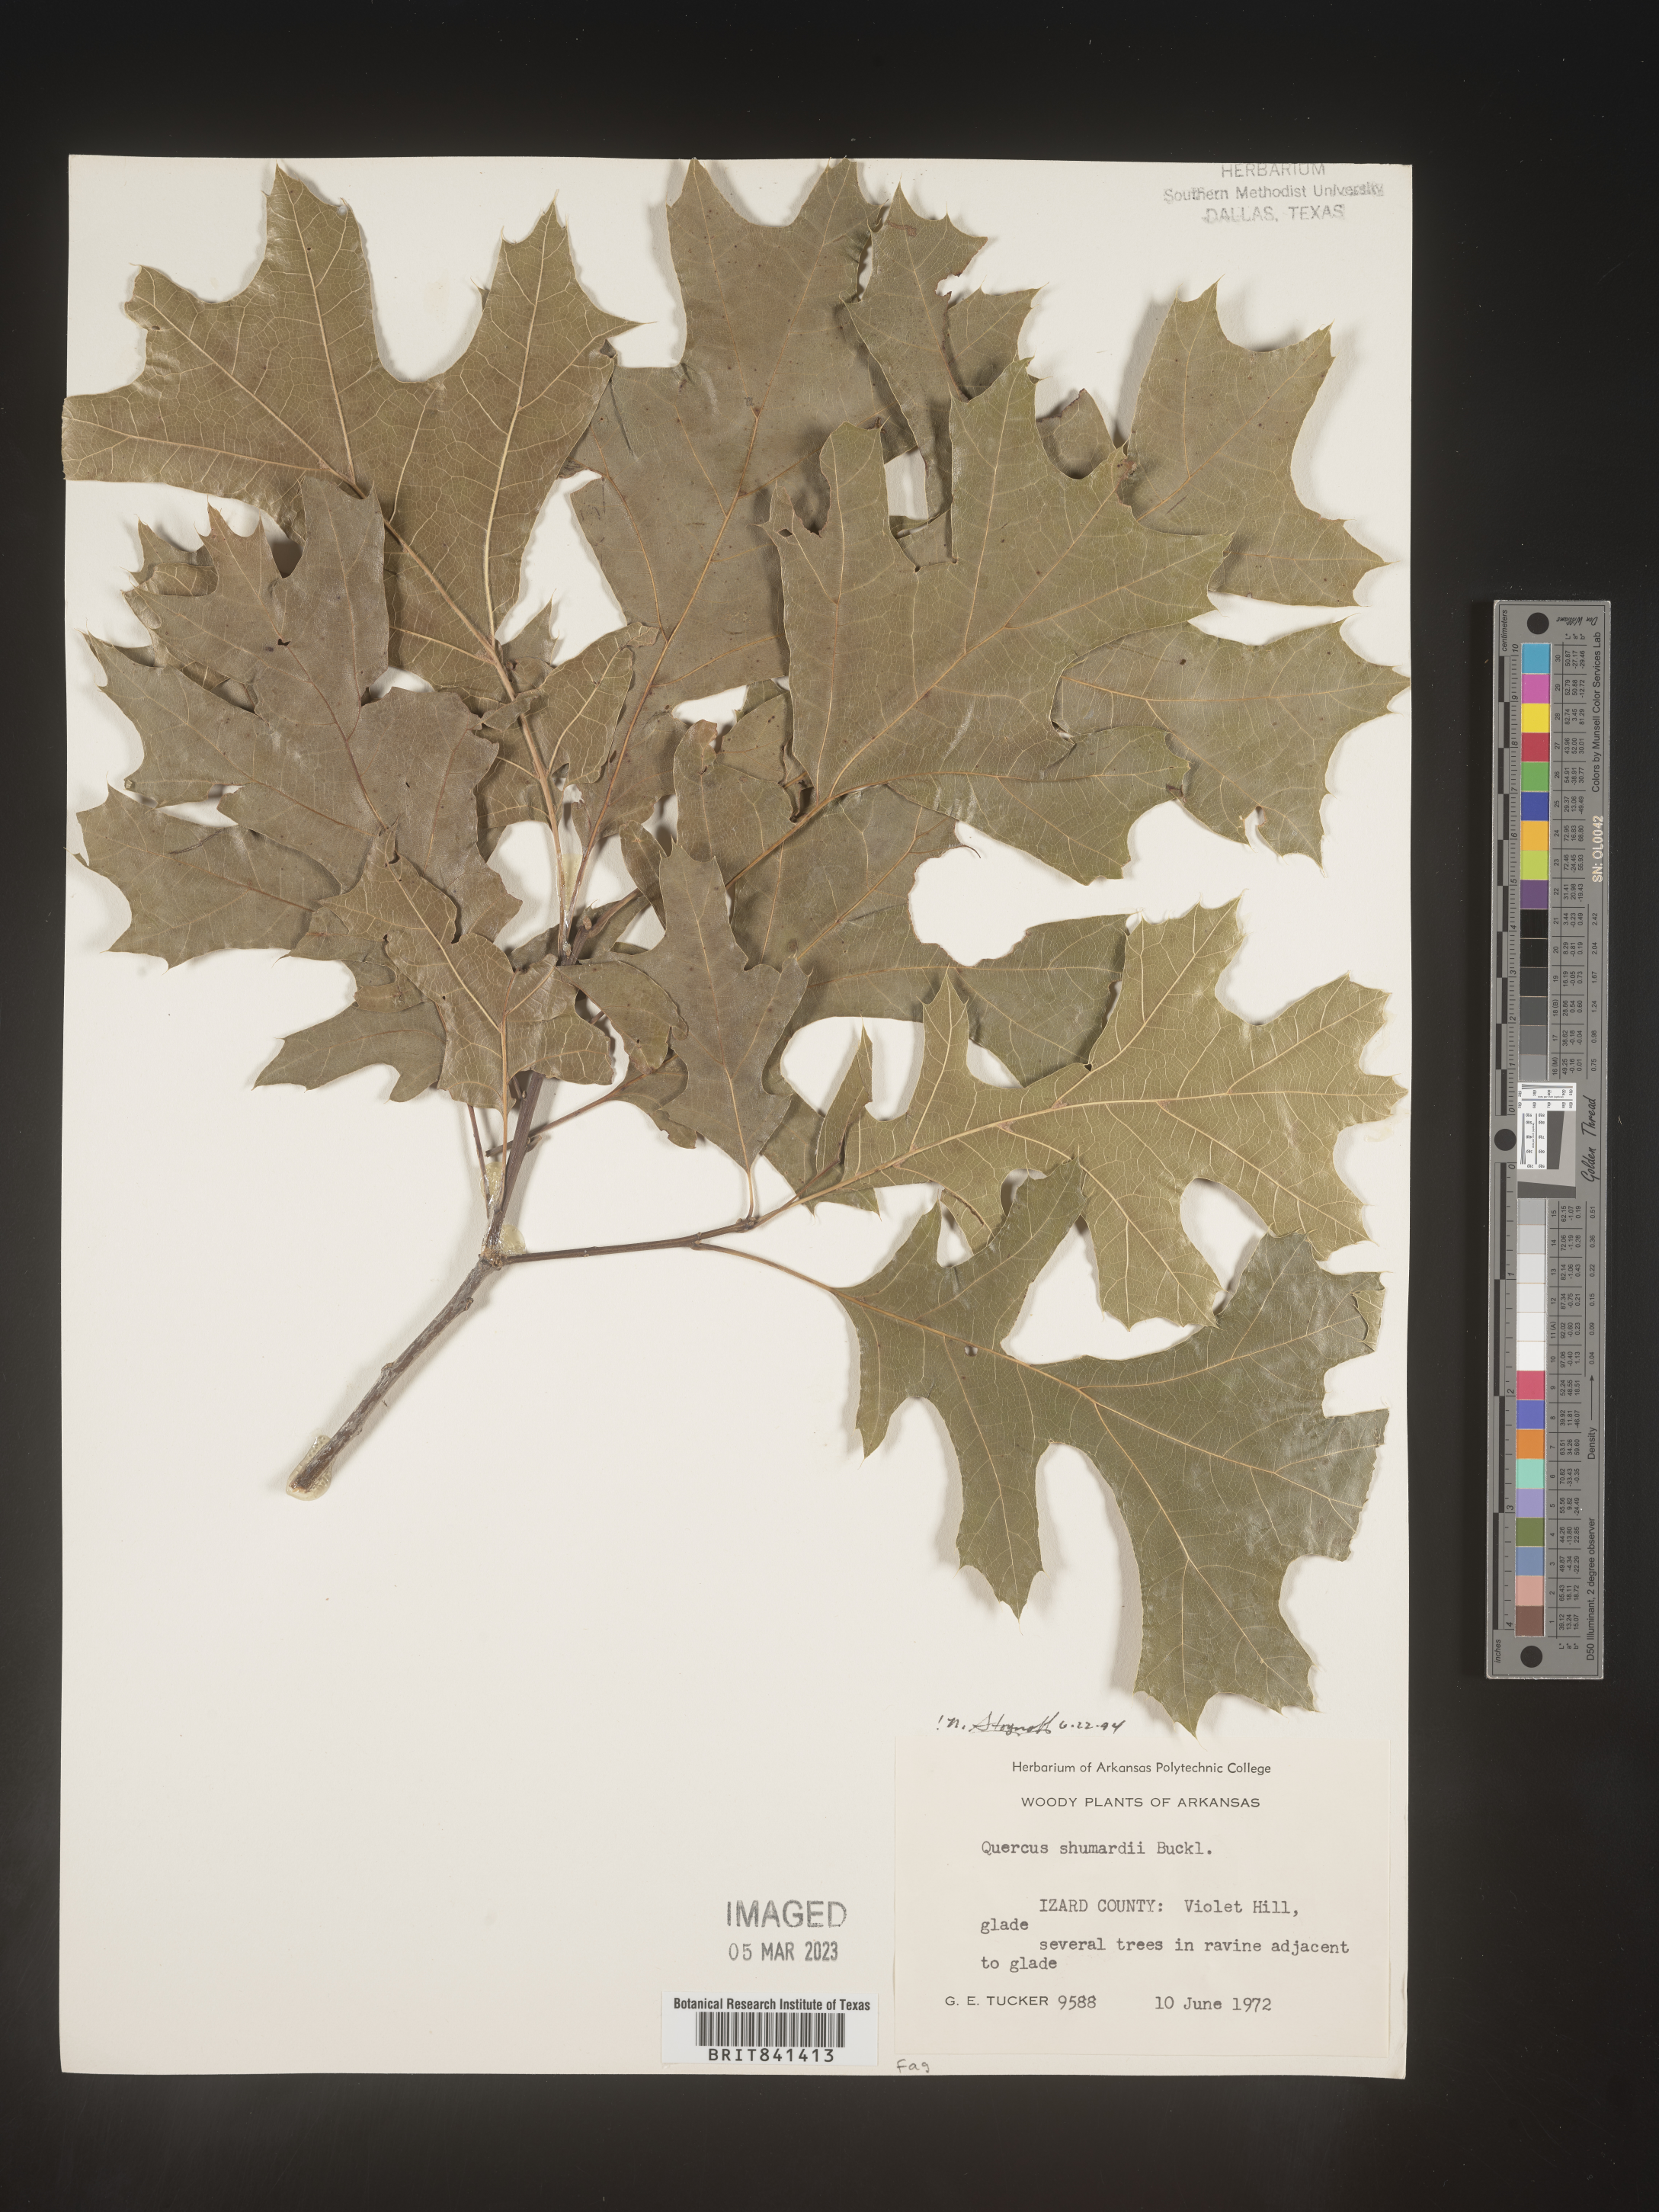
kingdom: Plantae
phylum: Tracheophyta
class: Magnoliopsida
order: Fagales
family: Fagaceae
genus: Quercus
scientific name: Quercus shumardii
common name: Shumard oak
